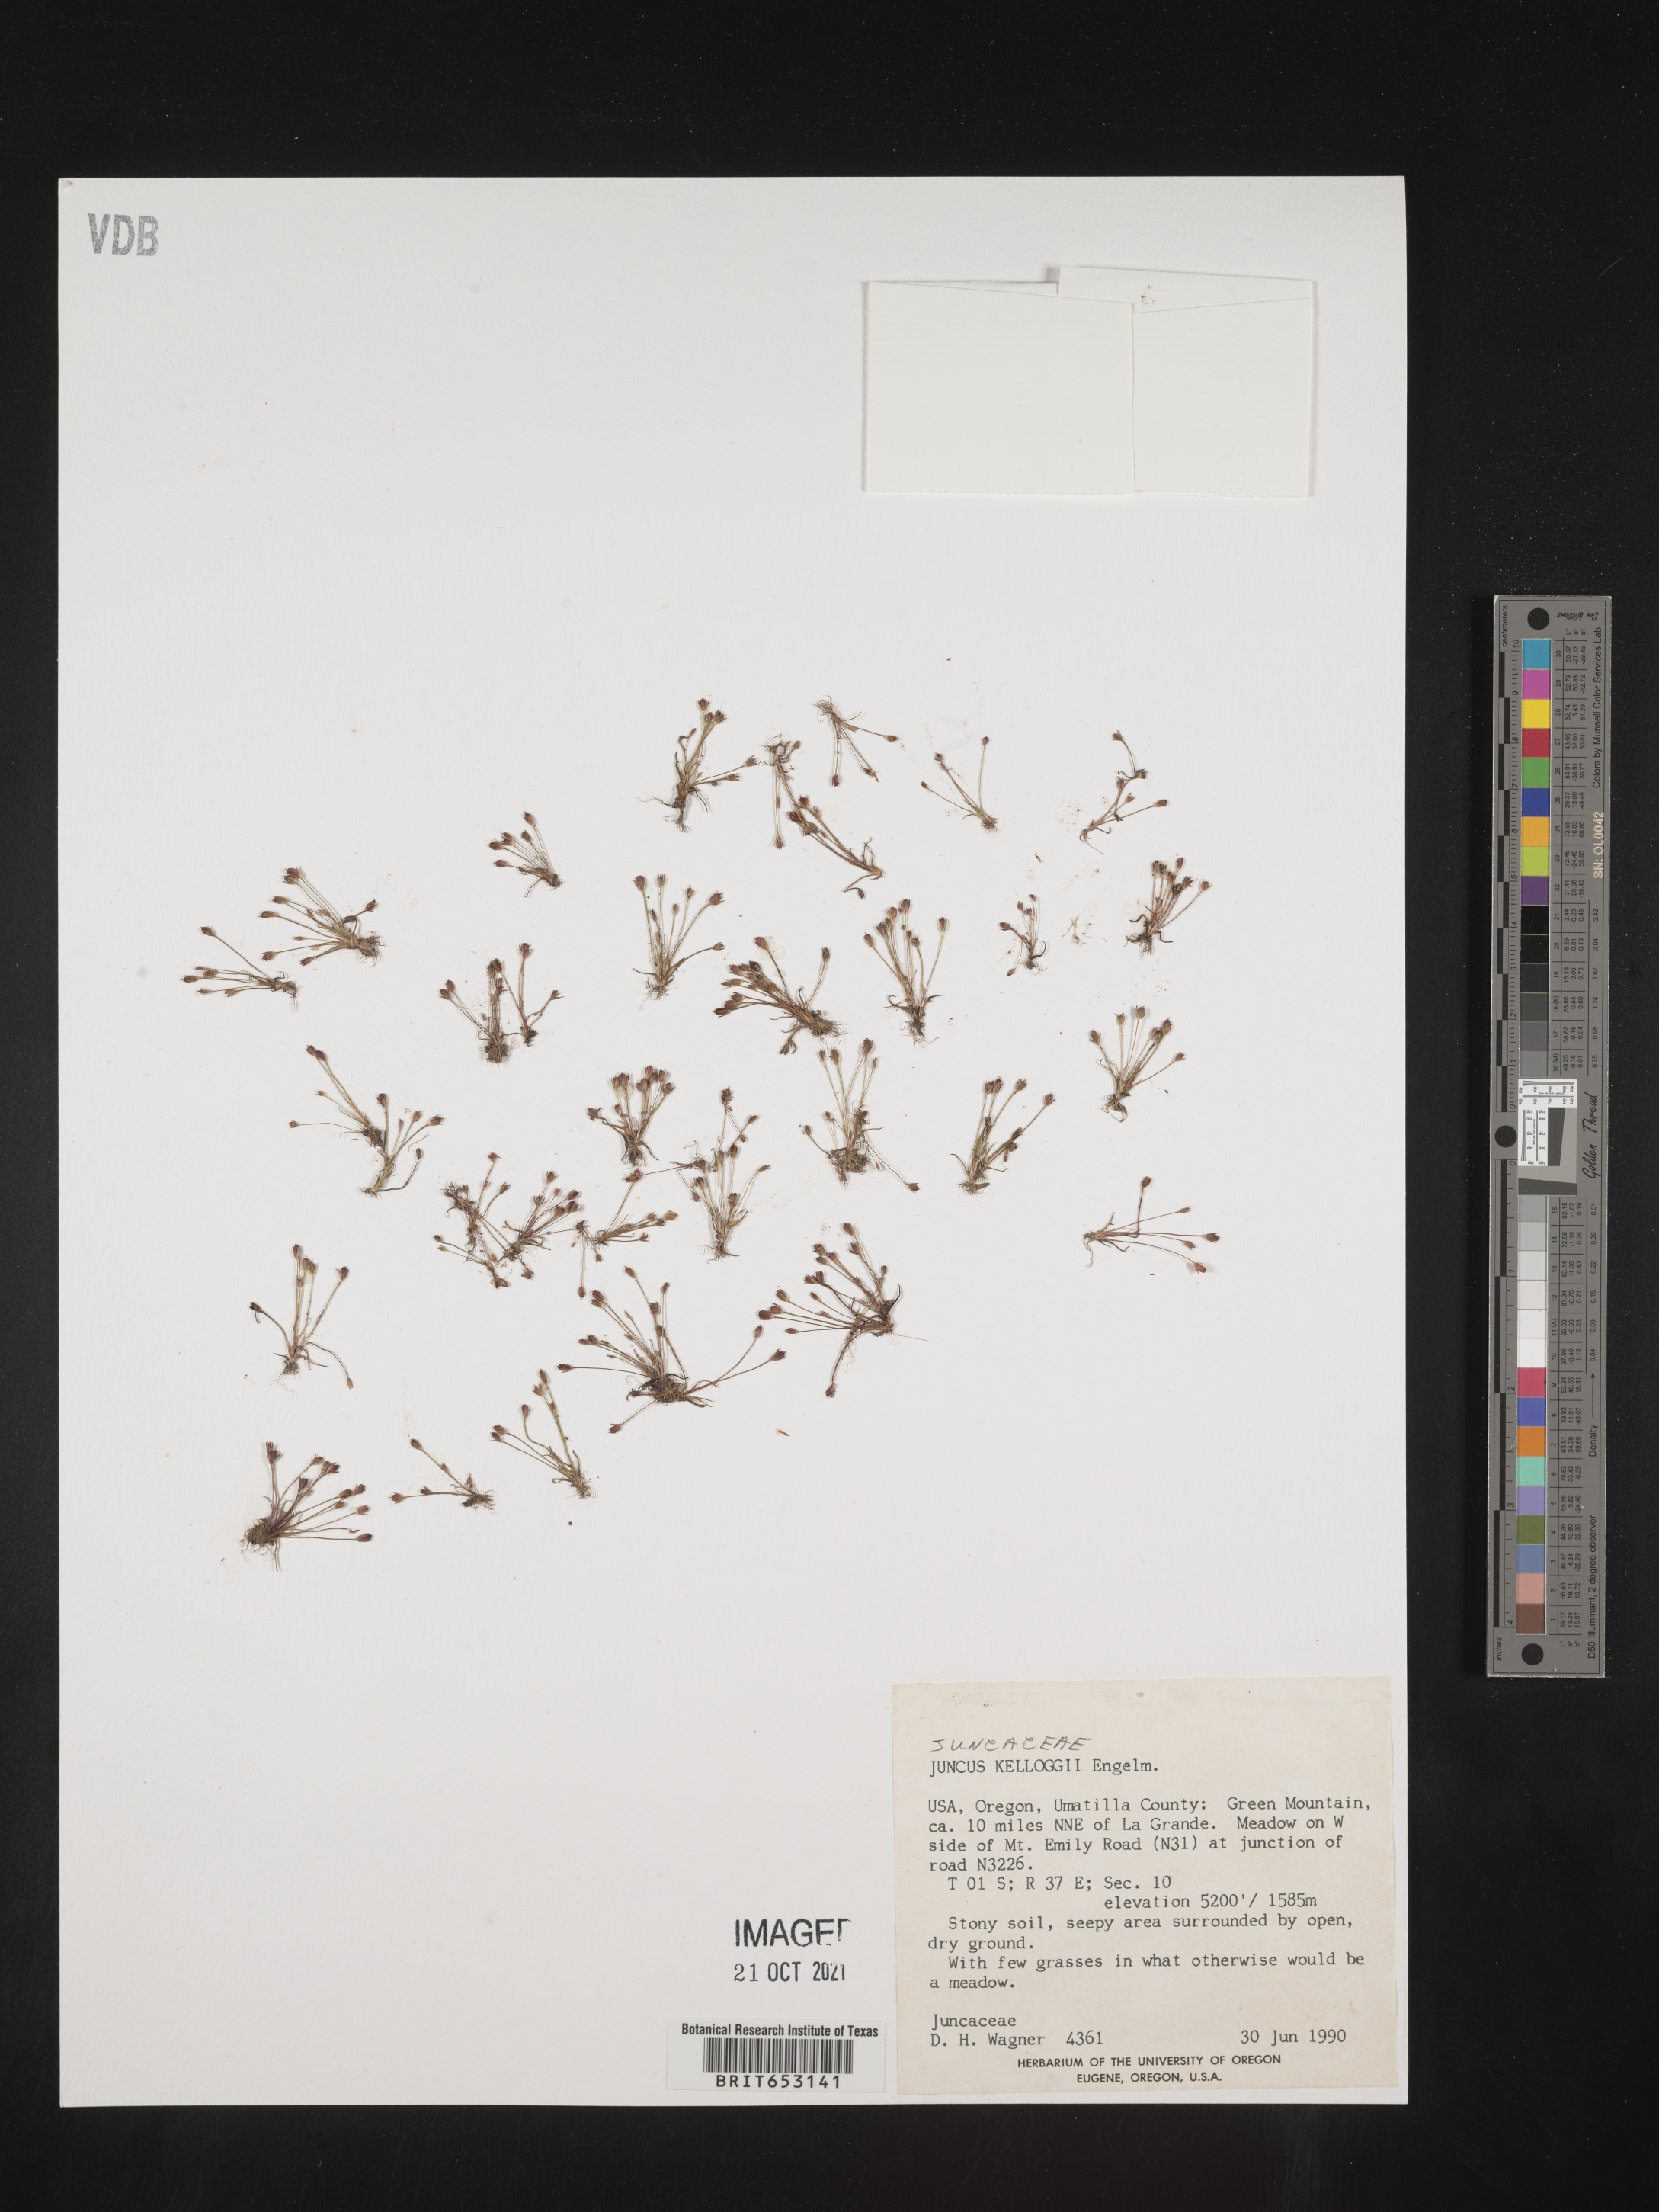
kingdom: Plantae
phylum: Tracheophyta
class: Liliopsida
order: Poales
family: Juncaceae
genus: Juncus
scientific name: Juncus kelloggii
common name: Kellogg's dwarf rush
